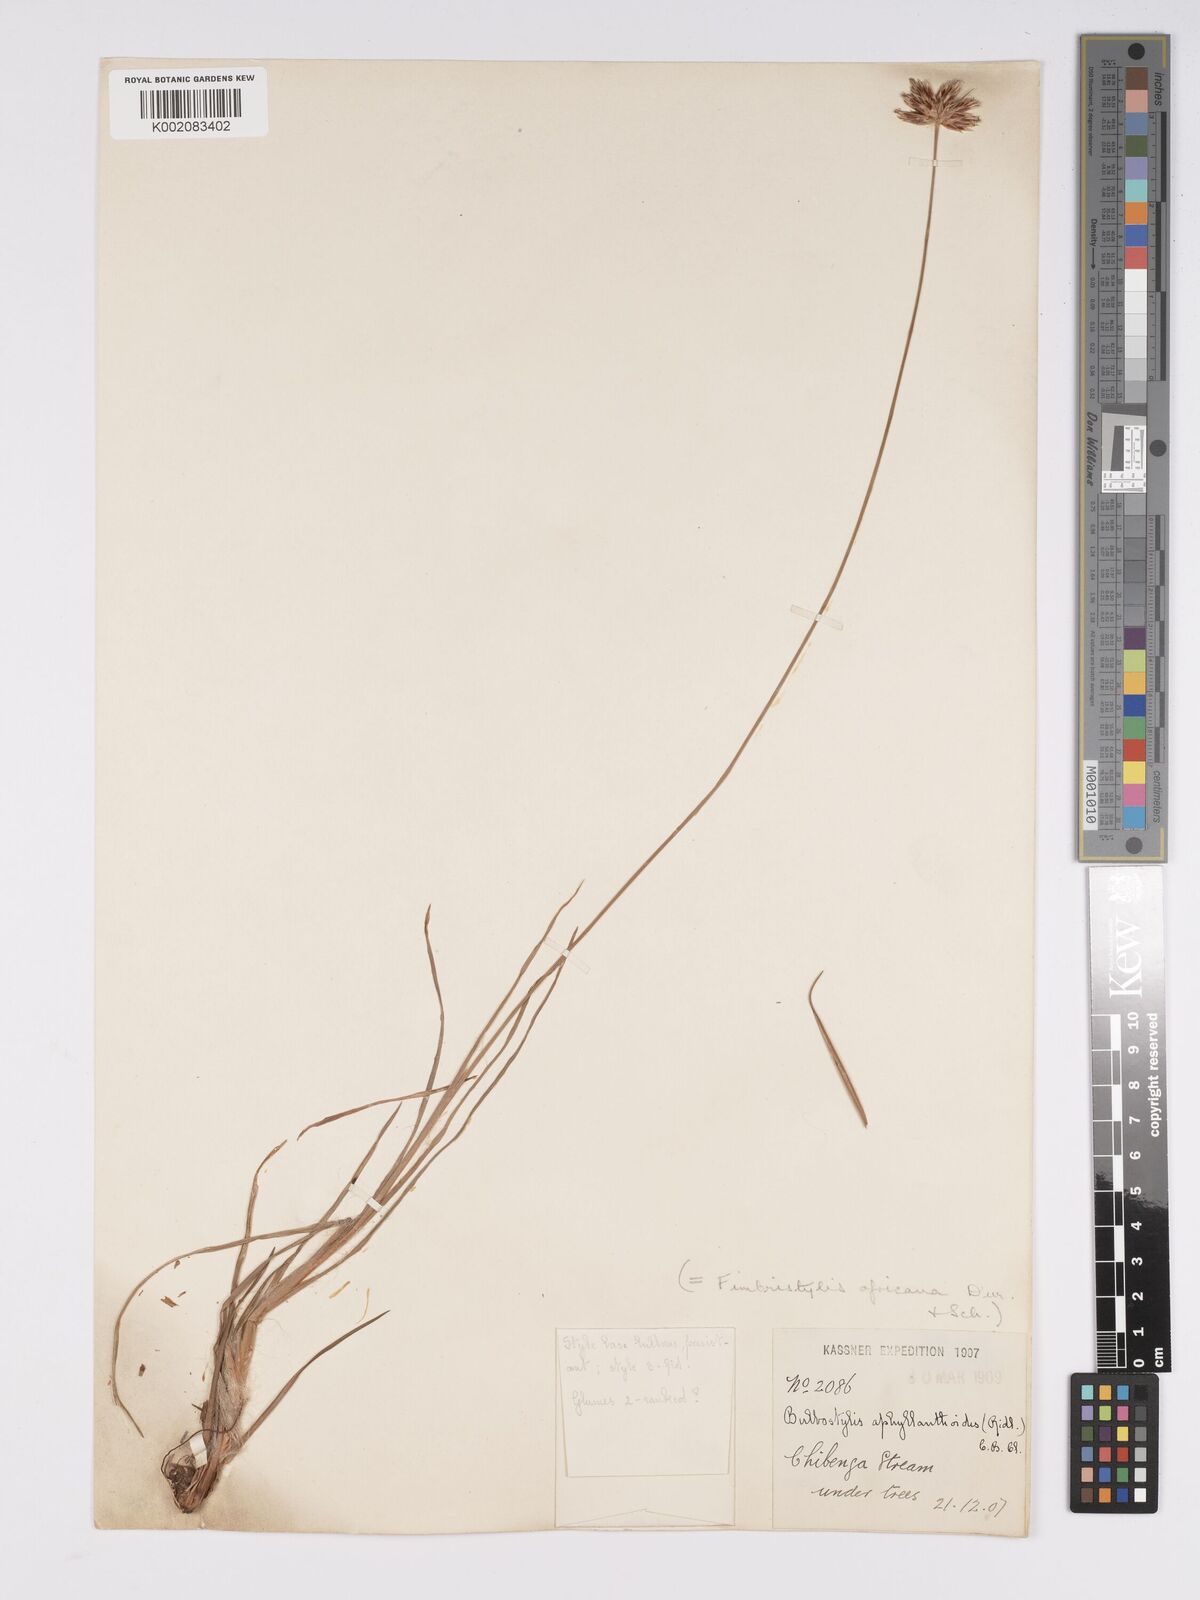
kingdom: Plantae
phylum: Tracheophyta
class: Liliopsida
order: Poales
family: Cyperaceae
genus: Bulbostylis
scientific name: Bulbostylis pilosa
